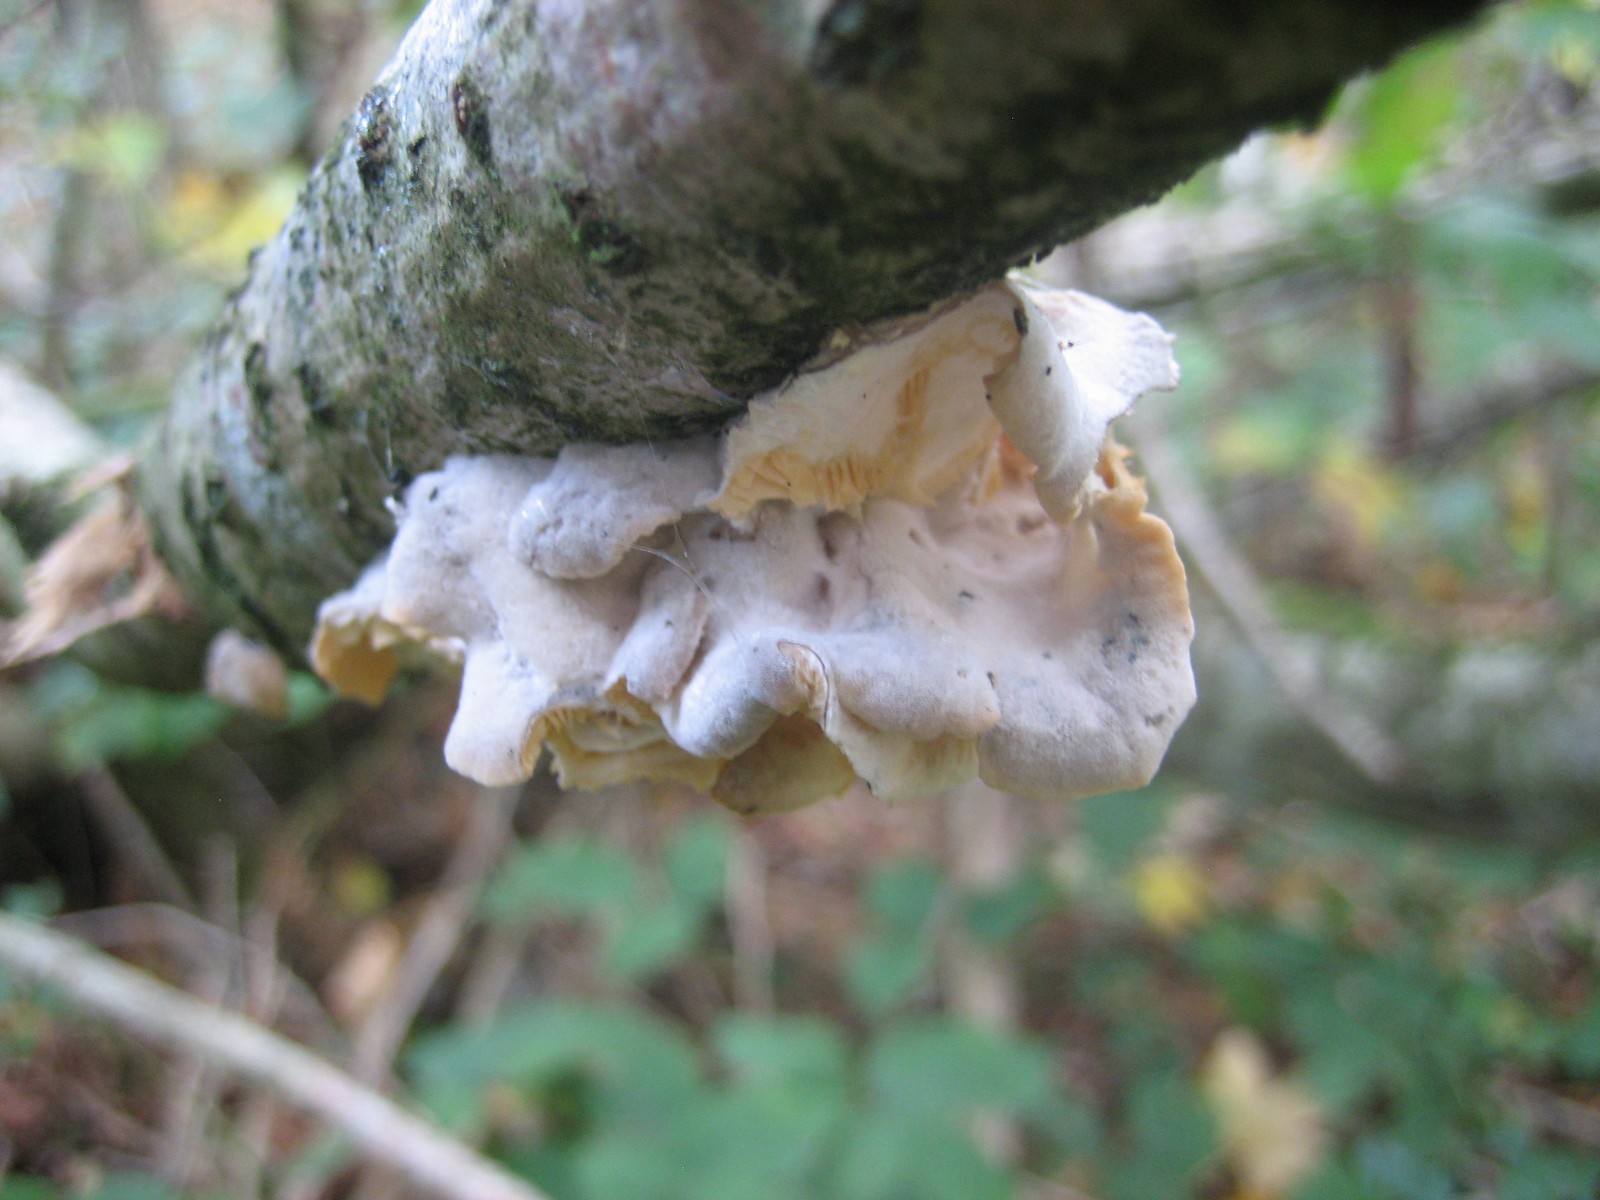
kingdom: Fungi
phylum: Basidiomycota
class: Agaricomycetes
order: Agaricales
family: Pleurotaceae
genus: Hohenbuehelia
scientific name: Hohenbuehelia
